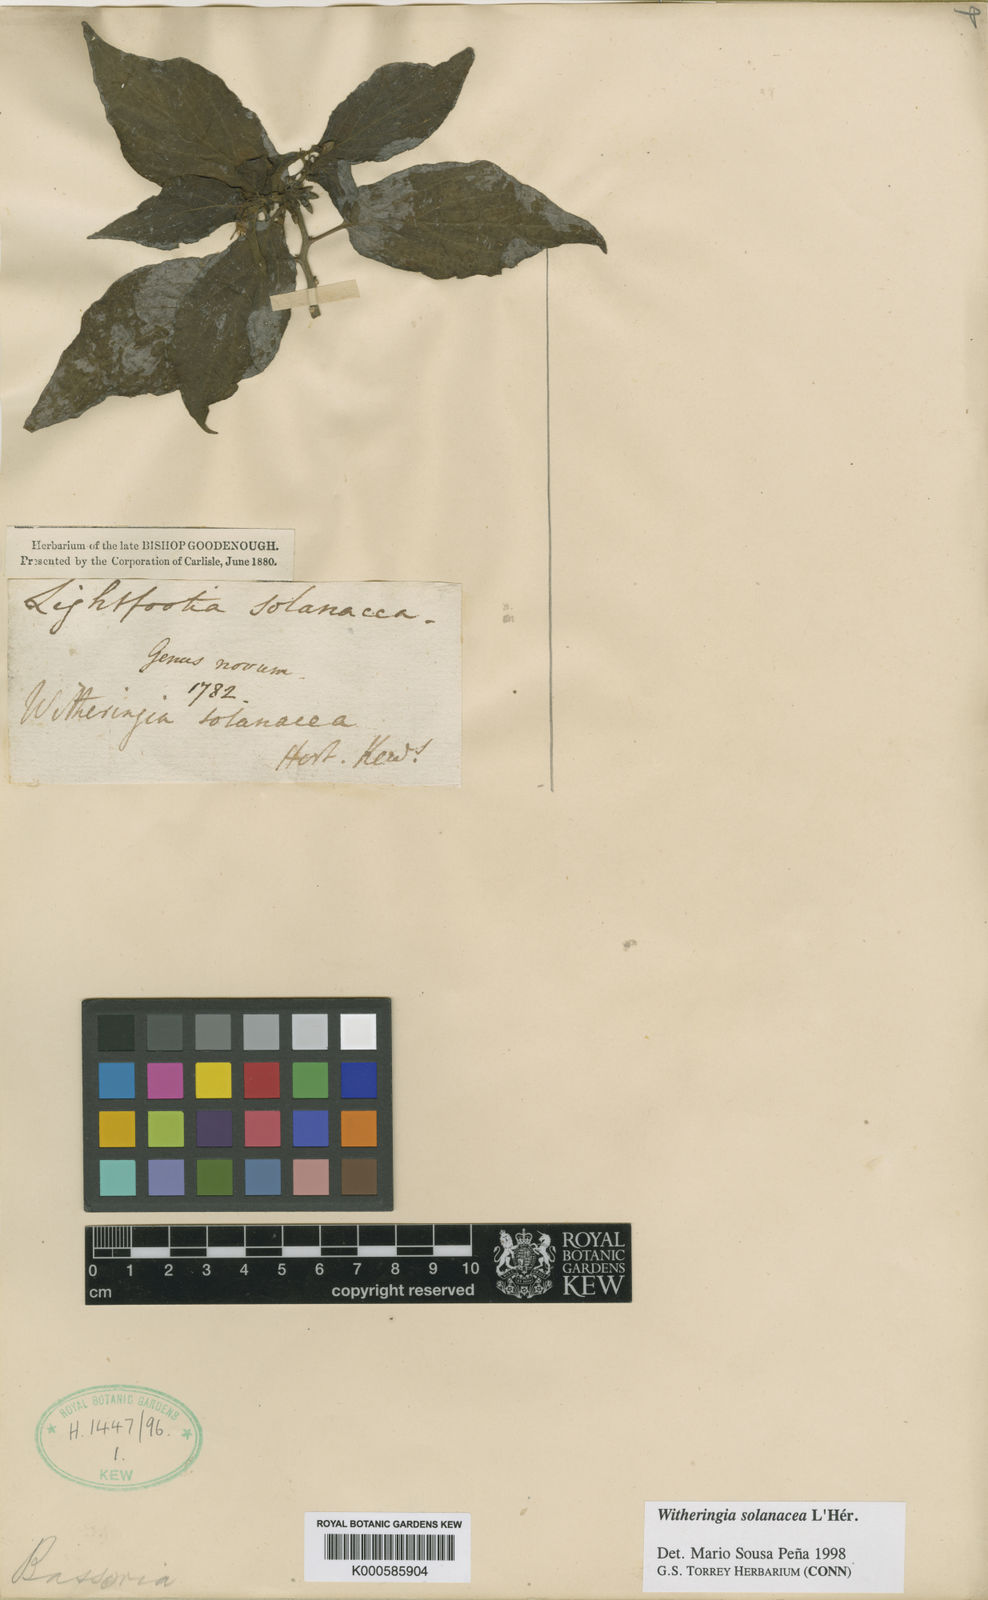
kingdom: Plantae
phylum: Tracheophyta
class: Magnoliopsida
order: Solanales
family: Solanaceae
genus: Witheringia
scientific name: Witheringia
